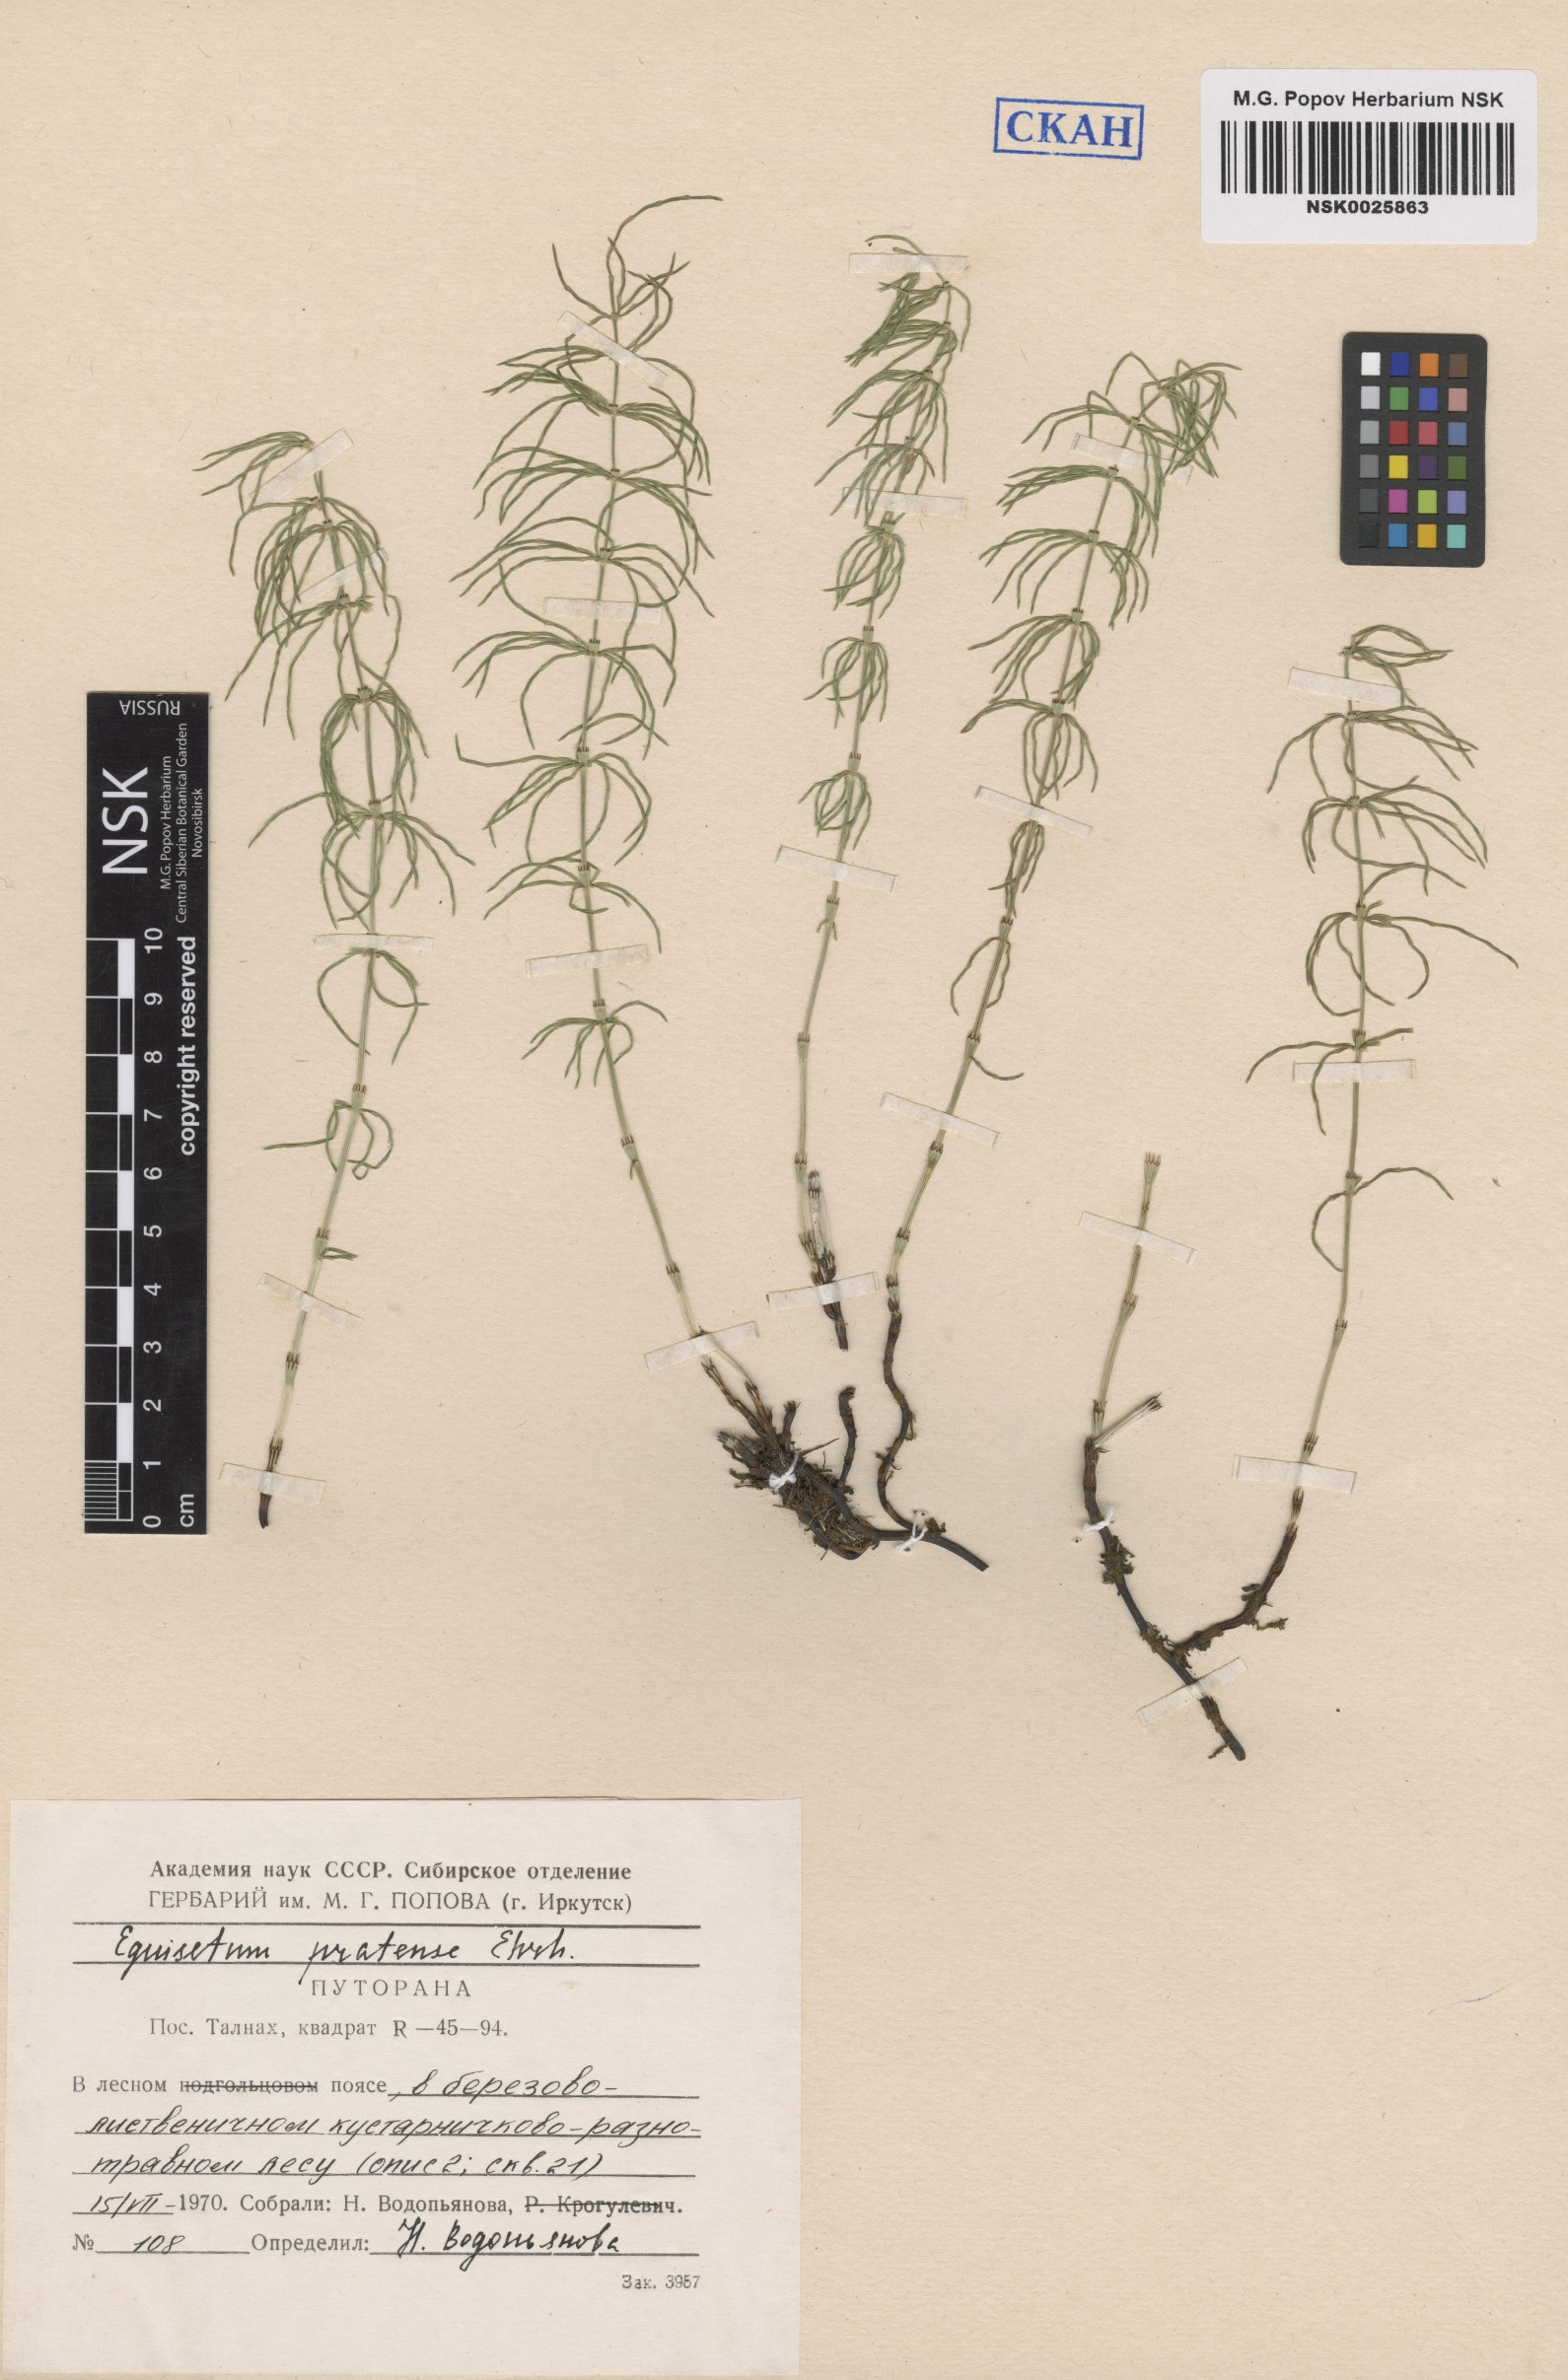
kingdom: Plantae
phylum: Tracheophyta
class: Polypodiopsida
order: Equisetales
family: Equisetaceae
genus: Equisetum
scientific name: Equisetum pratense
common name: Meadow horsetail
